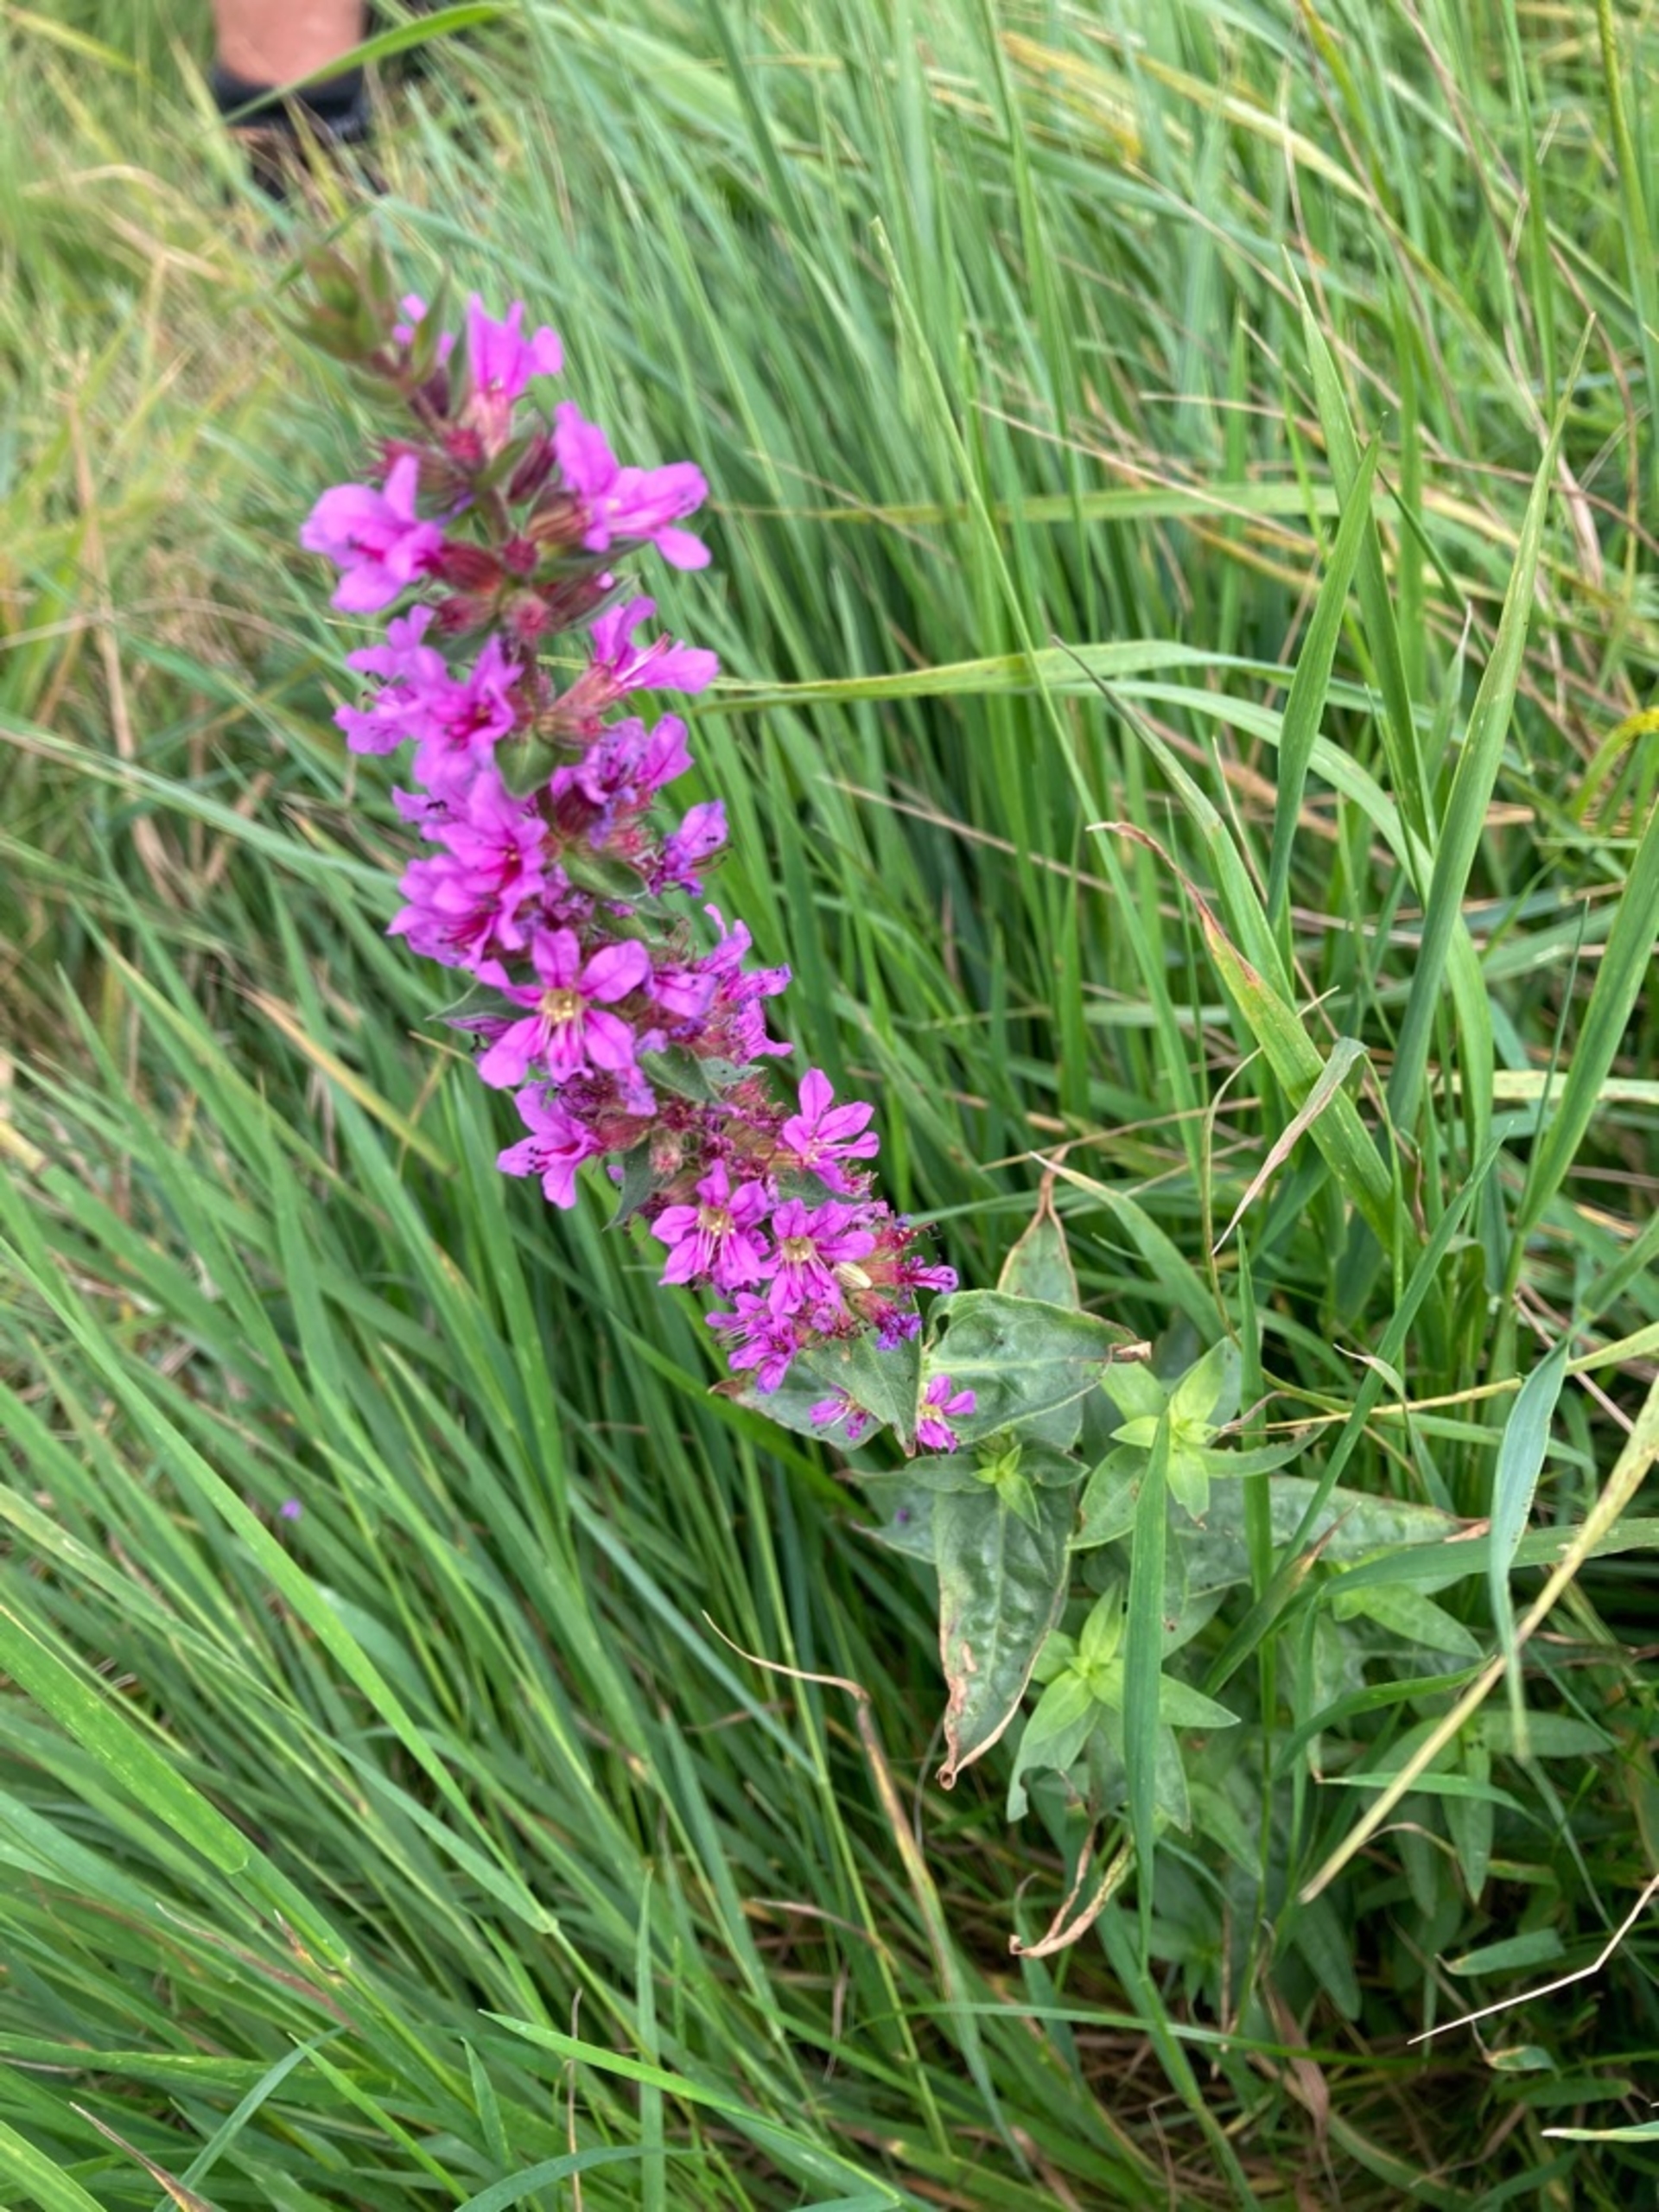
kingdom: Plantae
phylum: Tracheophyta
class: Magnoliopsida
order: Myrtales
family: Lythraceae
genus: Lythrum
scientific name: Lythrum salicaria
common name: Kattehale
